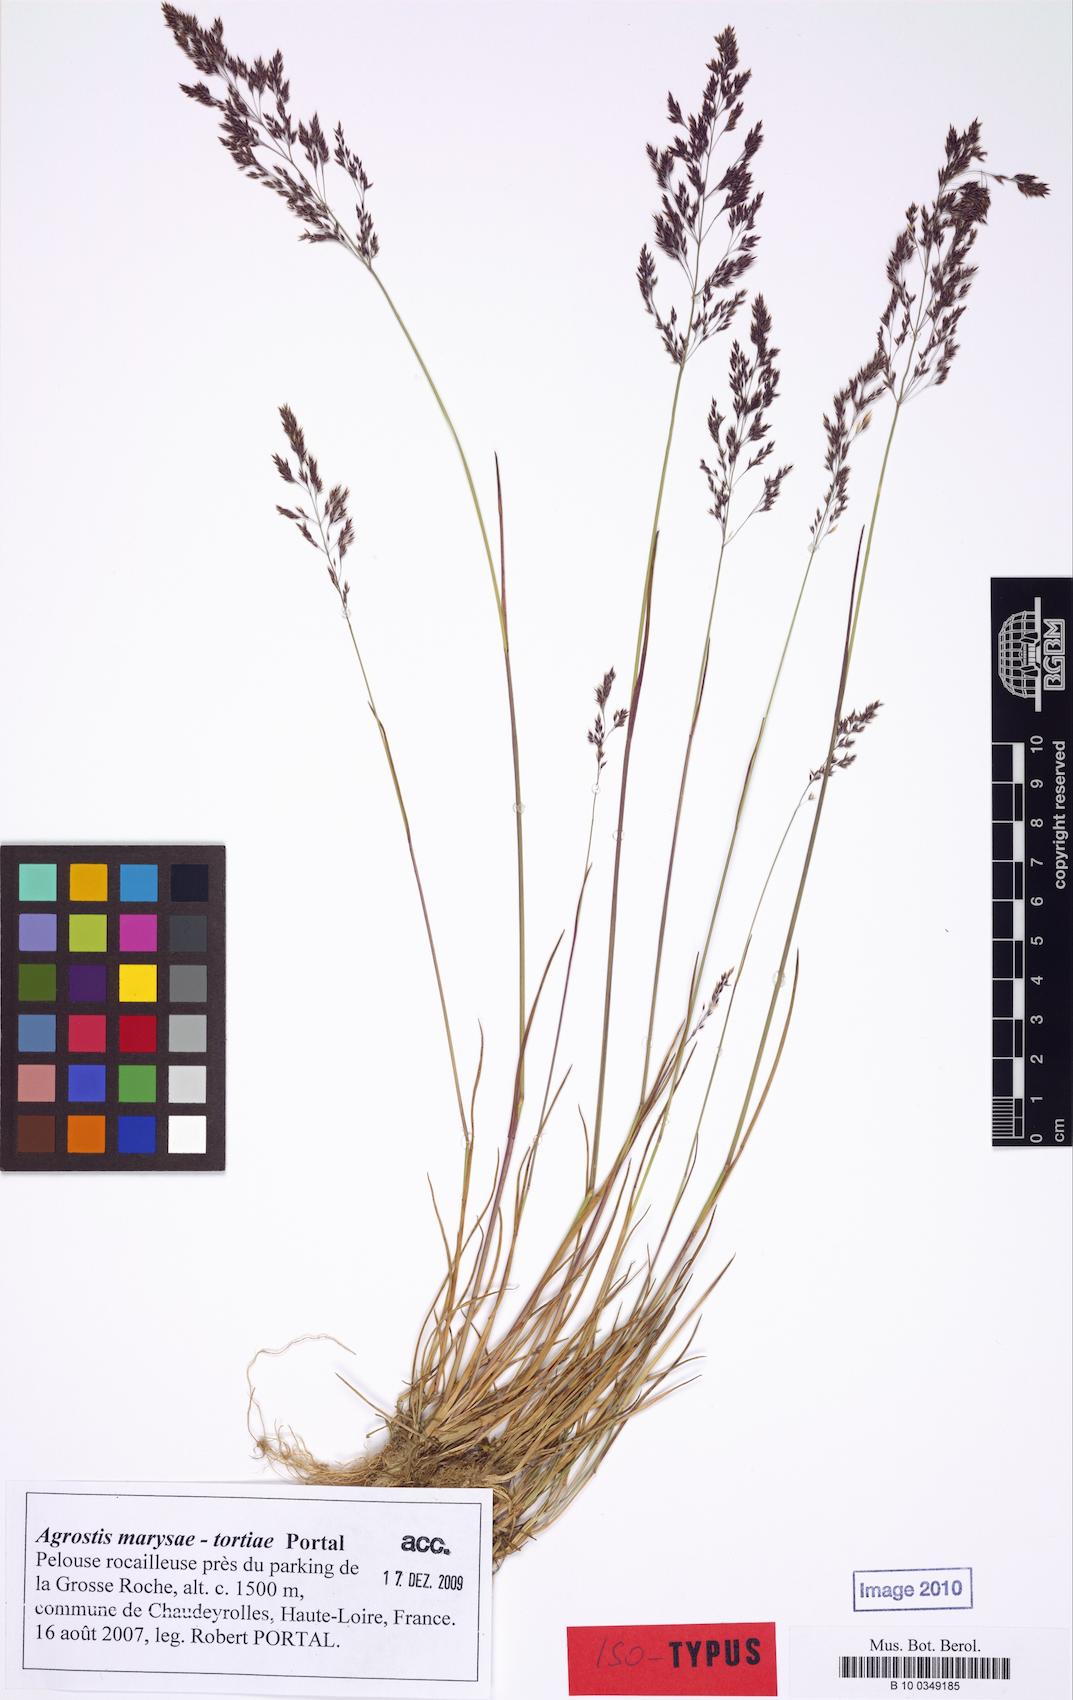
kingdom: Plantae
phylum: Tracheophyta
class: Liliopsida
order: Poales
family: Poaceae
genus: Agrostis
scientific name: Agrostis capillaris
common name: Colonial bentgrass
